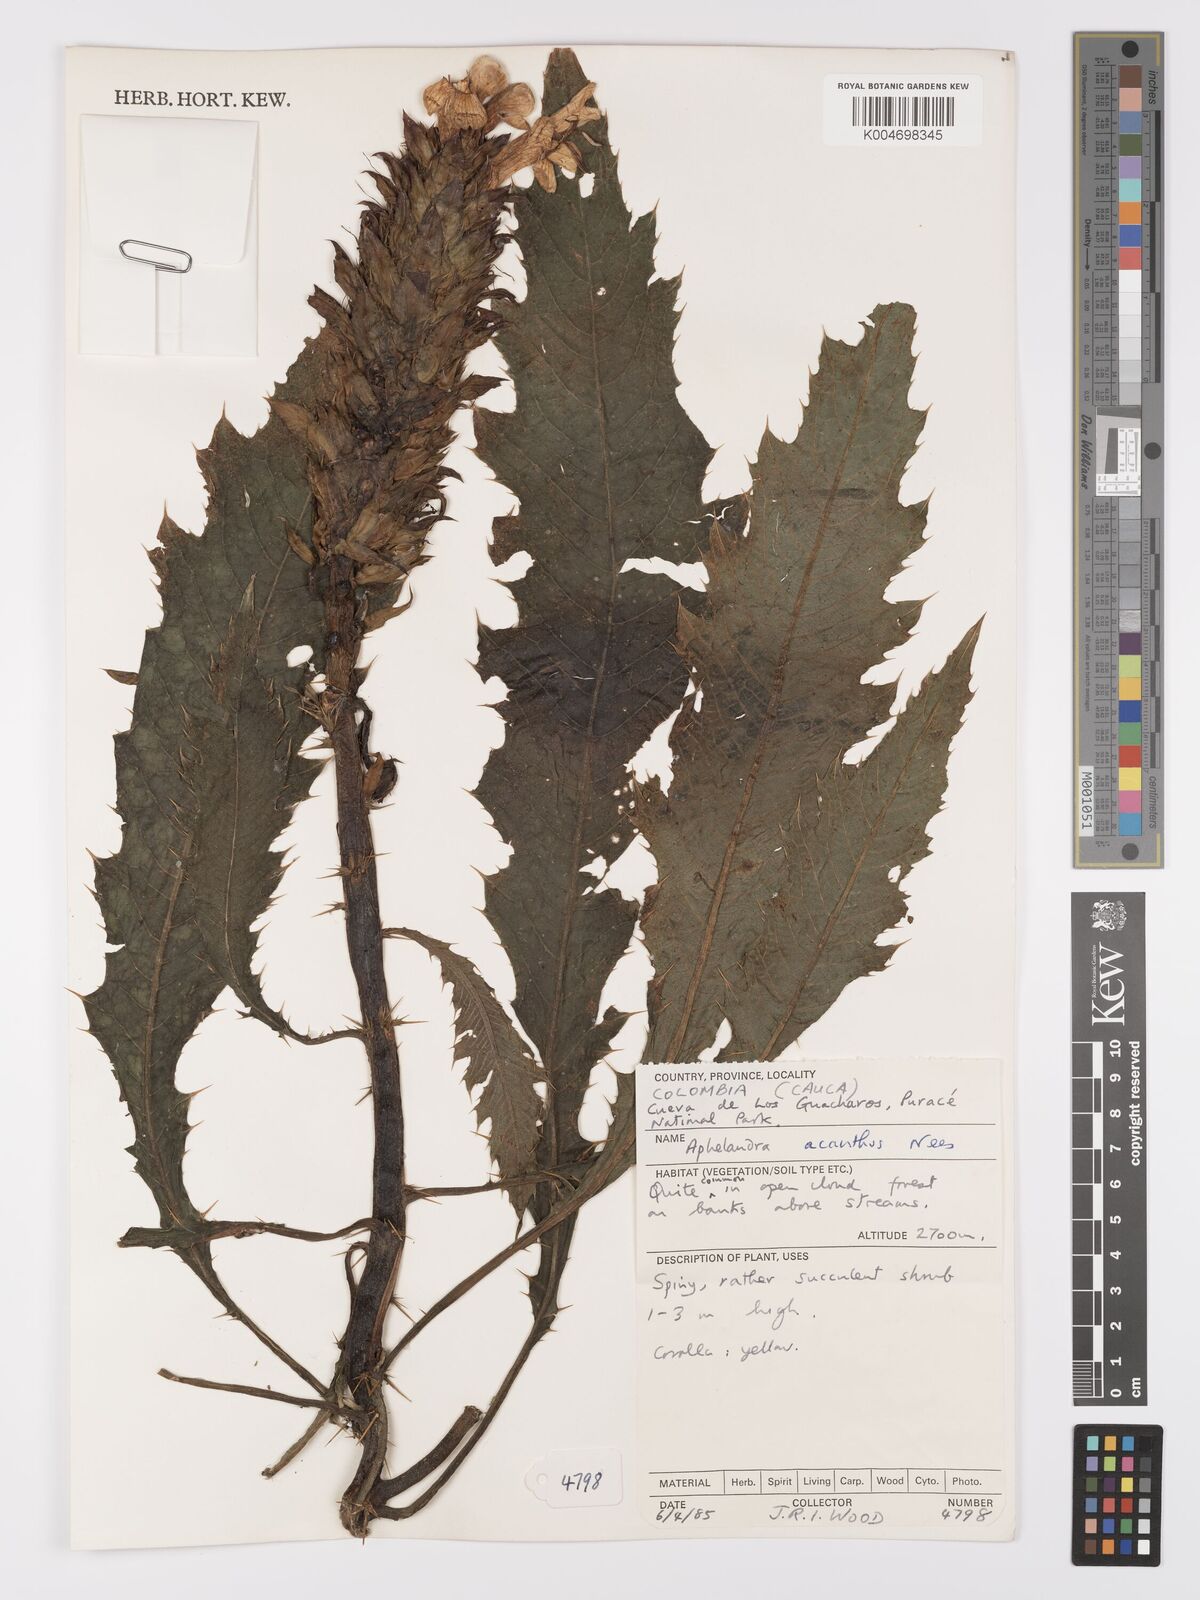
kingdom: Plantae
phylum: Tracheophyta
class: Magnoliopsida
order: Lamiales
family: Acanthaceae
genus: Aphelandra
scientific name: Aphelandra acanthus
